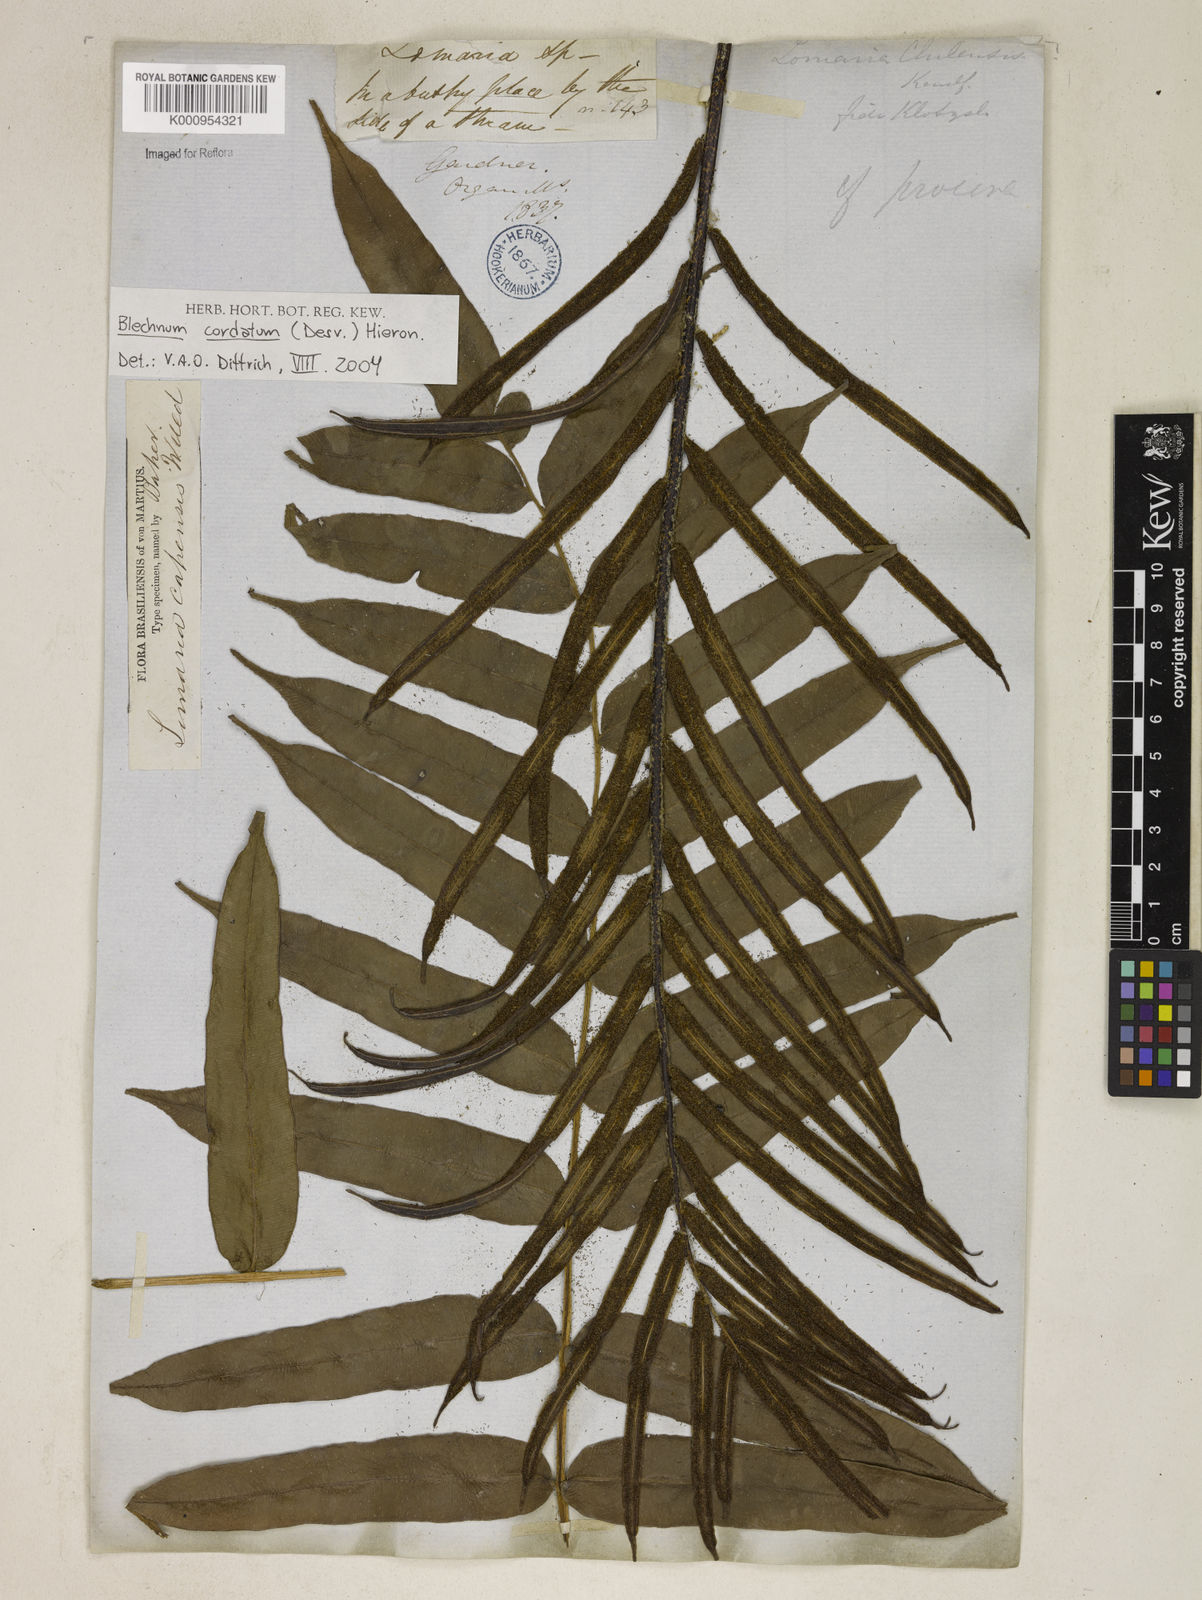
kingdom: Plantae
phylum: Tracheophyta
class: Polypodiopsida
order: Polypodiales
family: Blechnaceae
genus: Parablechnum
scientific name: Parablechnum cordatum
